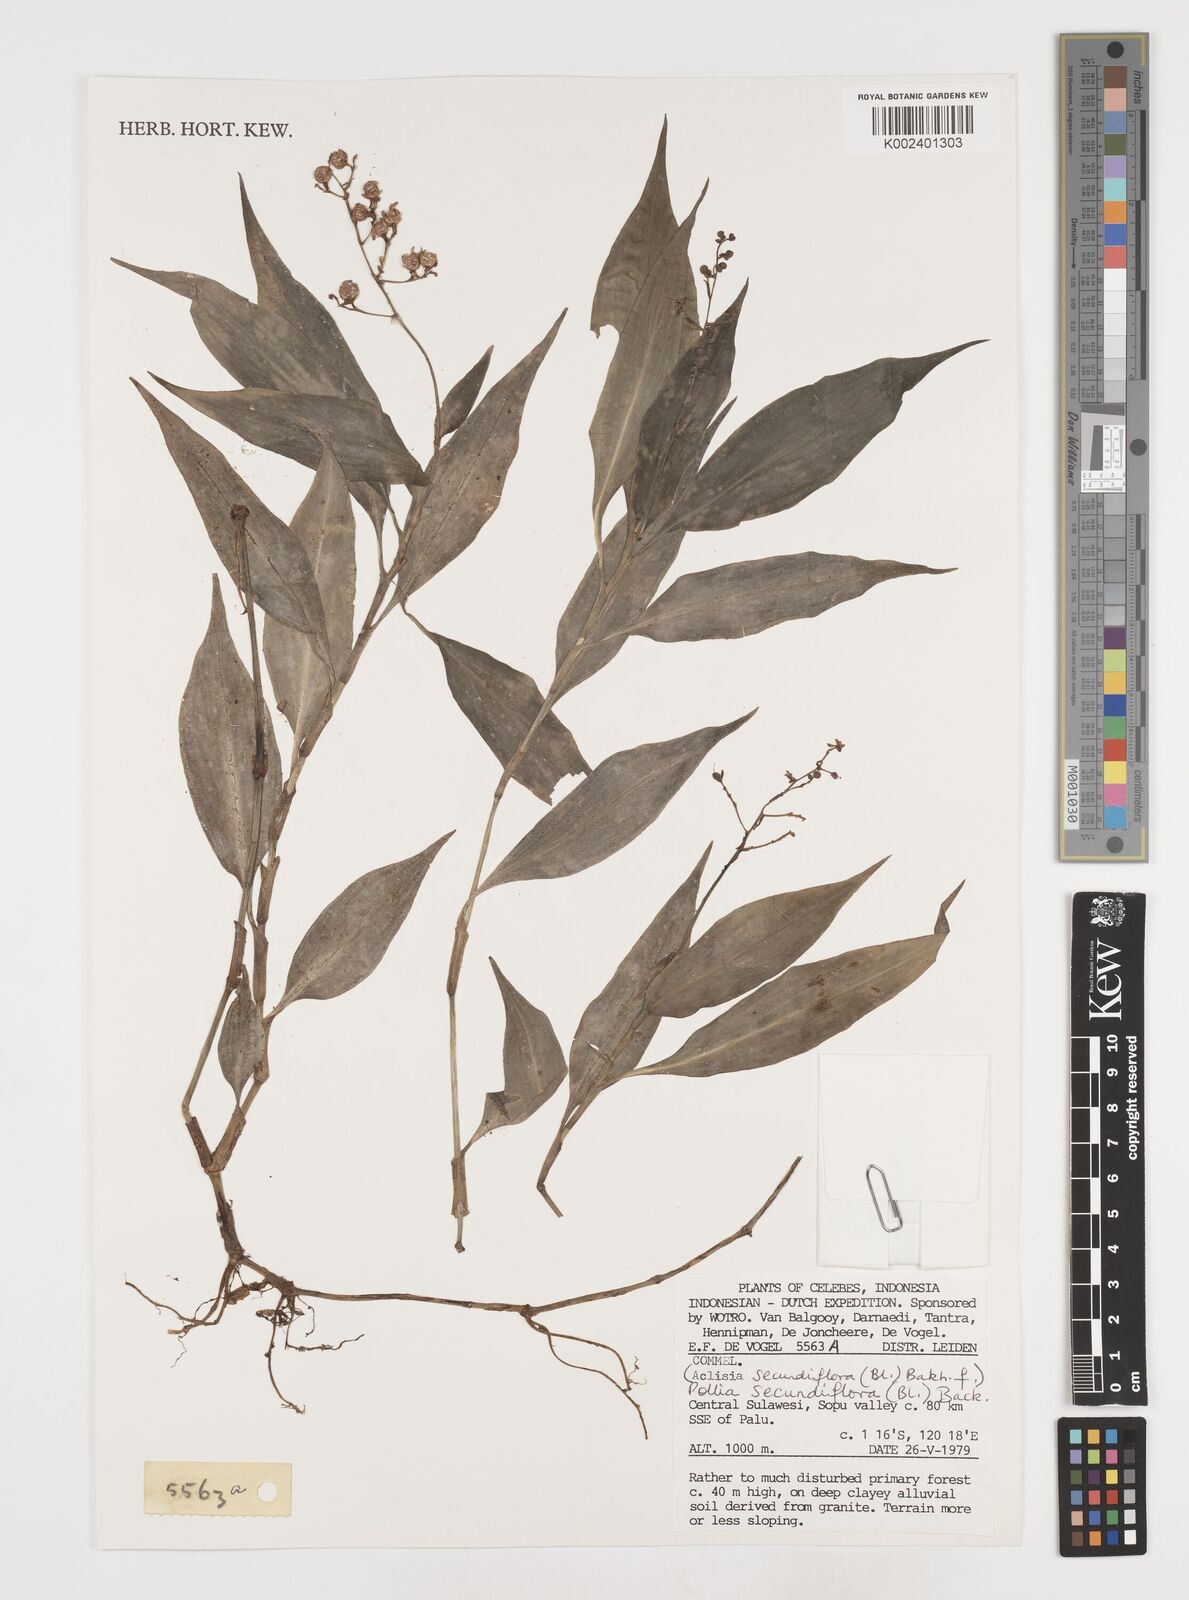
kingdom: Plantae
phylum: Tracheophyta
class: Liliopsida
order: Commelinales
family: Commelinaceae
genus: Pollia
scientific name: Pollia secundiflora
